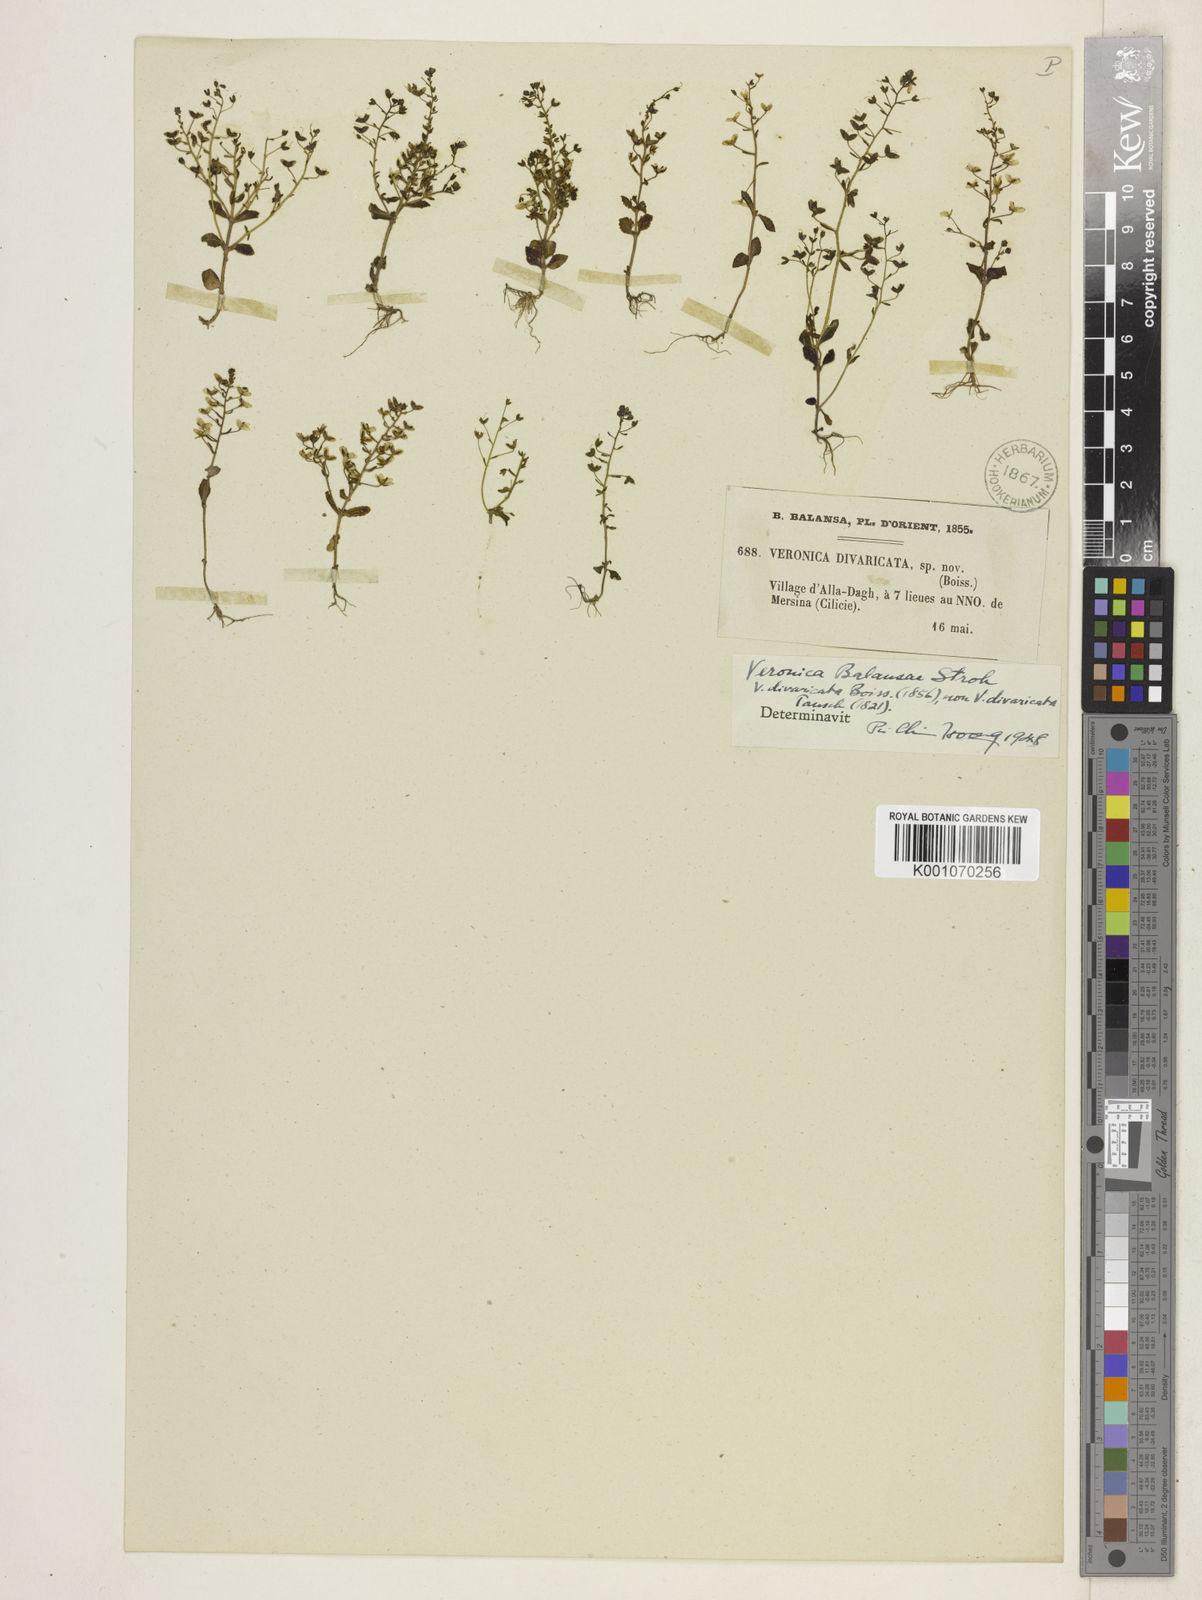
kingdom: Plantae
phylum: Tracheophyta
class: Magnoliopsida
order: Lamiales
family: Plantaginaceae
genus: Veronica
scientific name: Veronica
